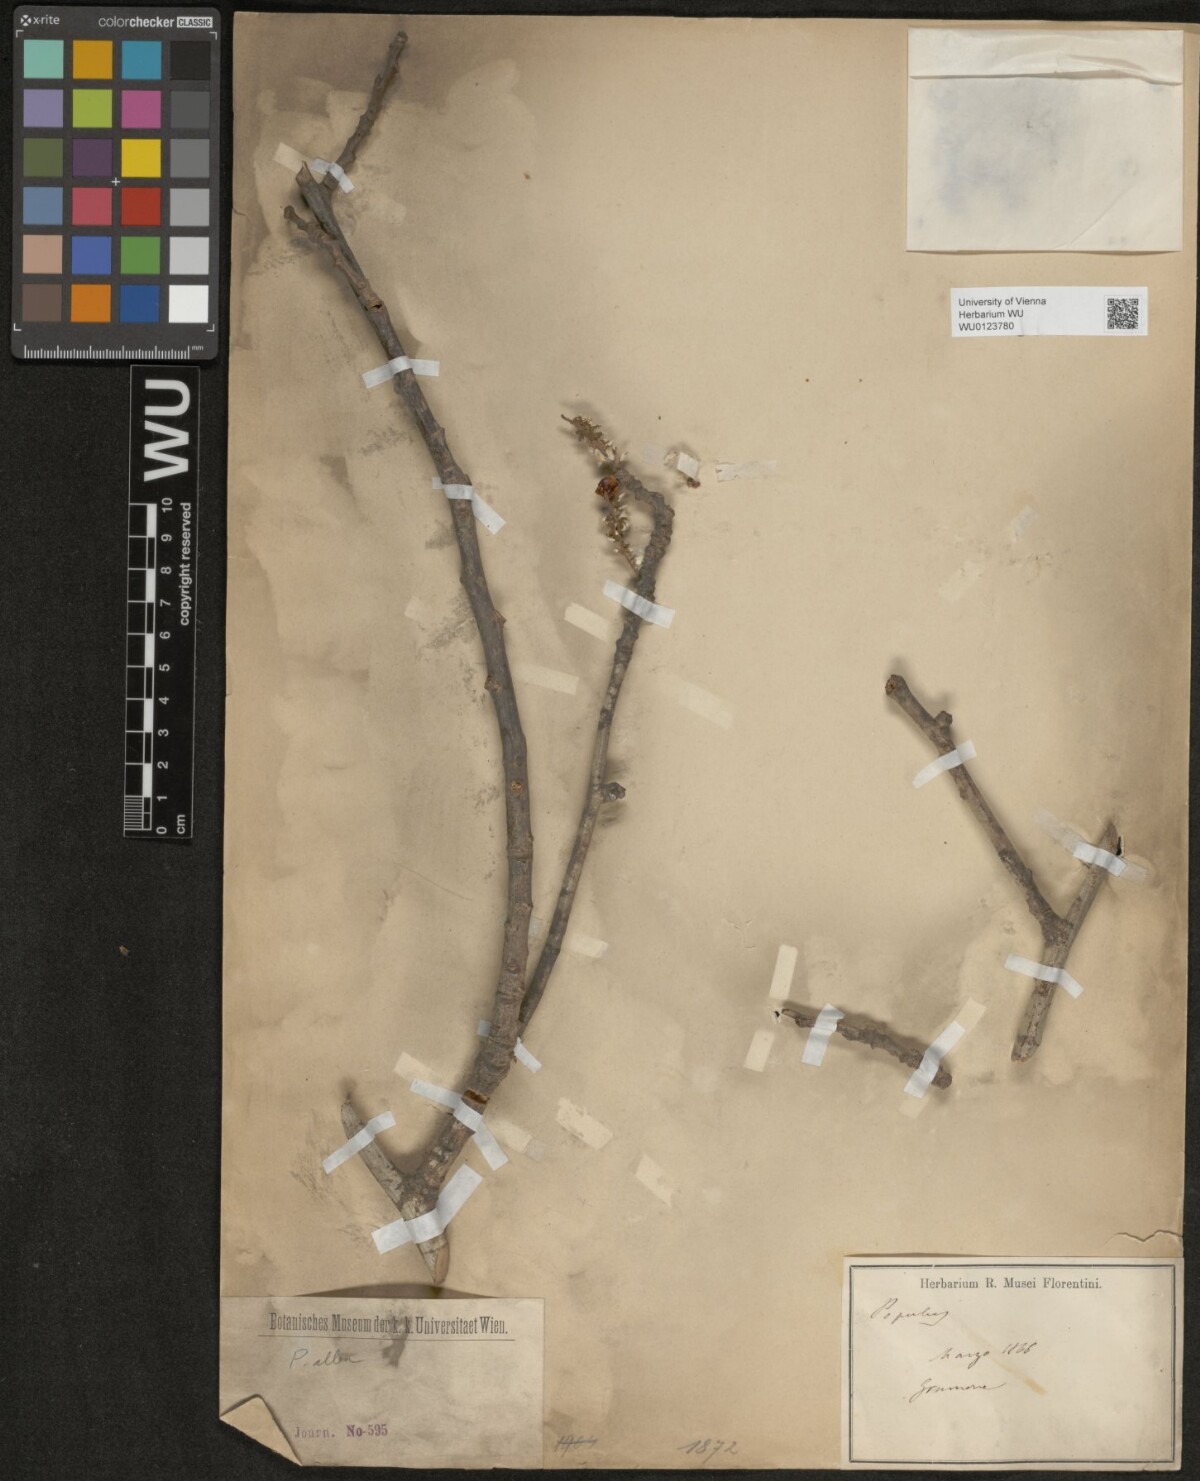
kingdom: Plantae
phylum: Tracheophyta
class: Magnoliopsida
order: Malpighiales
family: Salicaceae
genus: Populus
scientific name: Populus alba
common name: White poplar
